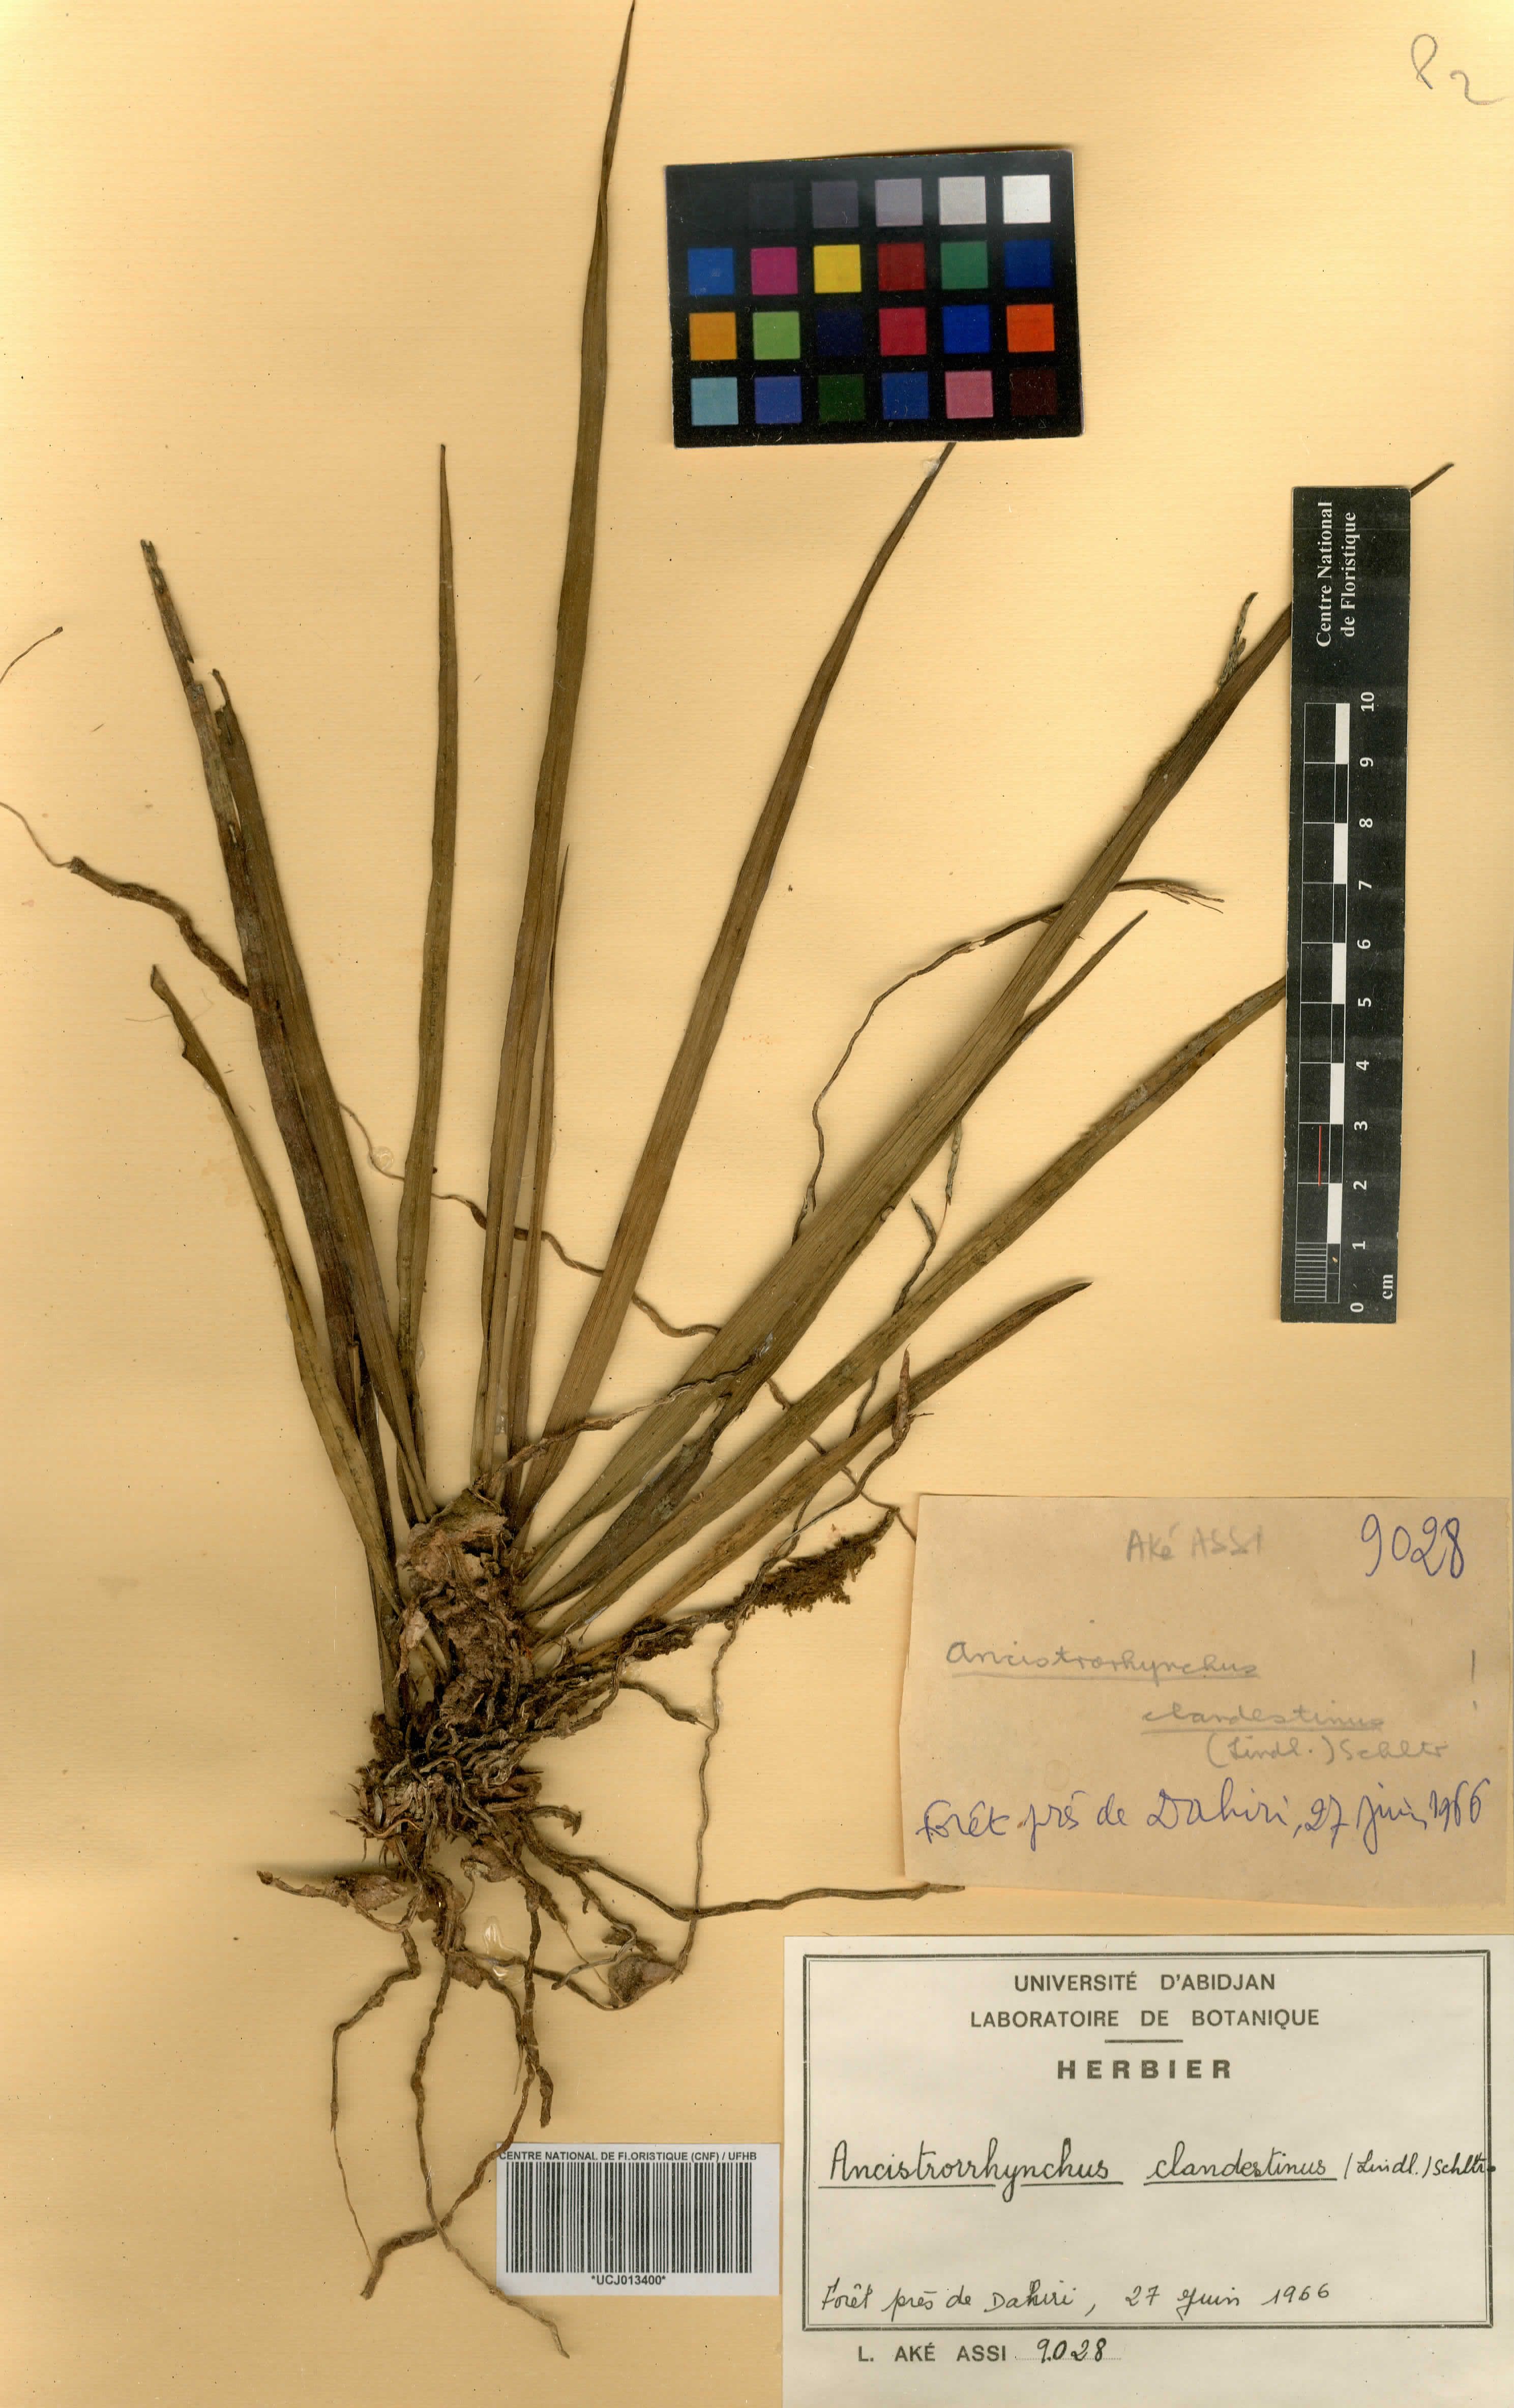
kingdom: Plantae
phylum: Tracheophyta
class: Liliopsida
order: Asparagales
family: Orchidaceae
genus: Ancistrorhynchus
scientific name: Ancistrorhynchus clandestinus
